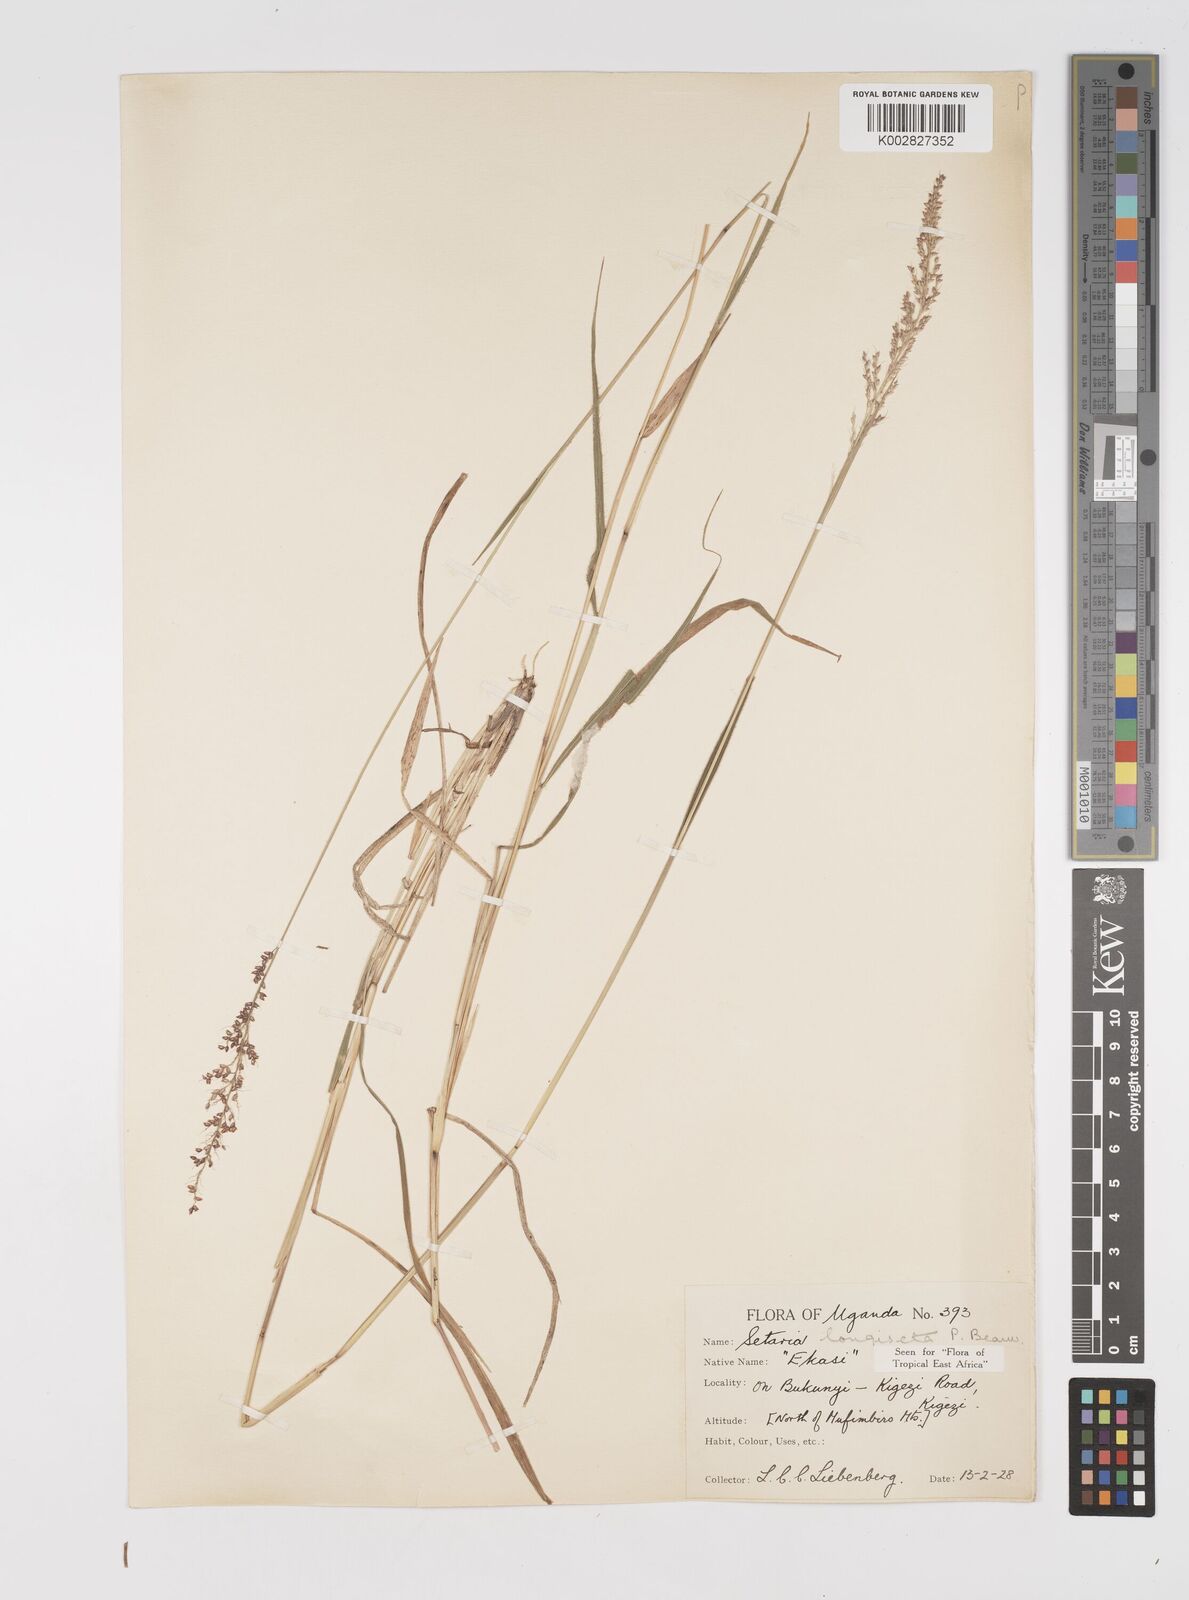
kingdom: Plantae
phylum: Tracheophyta
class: Liliopsida
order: Poales
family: Poaceae
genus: Setaria
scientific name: Setaria longiseta
